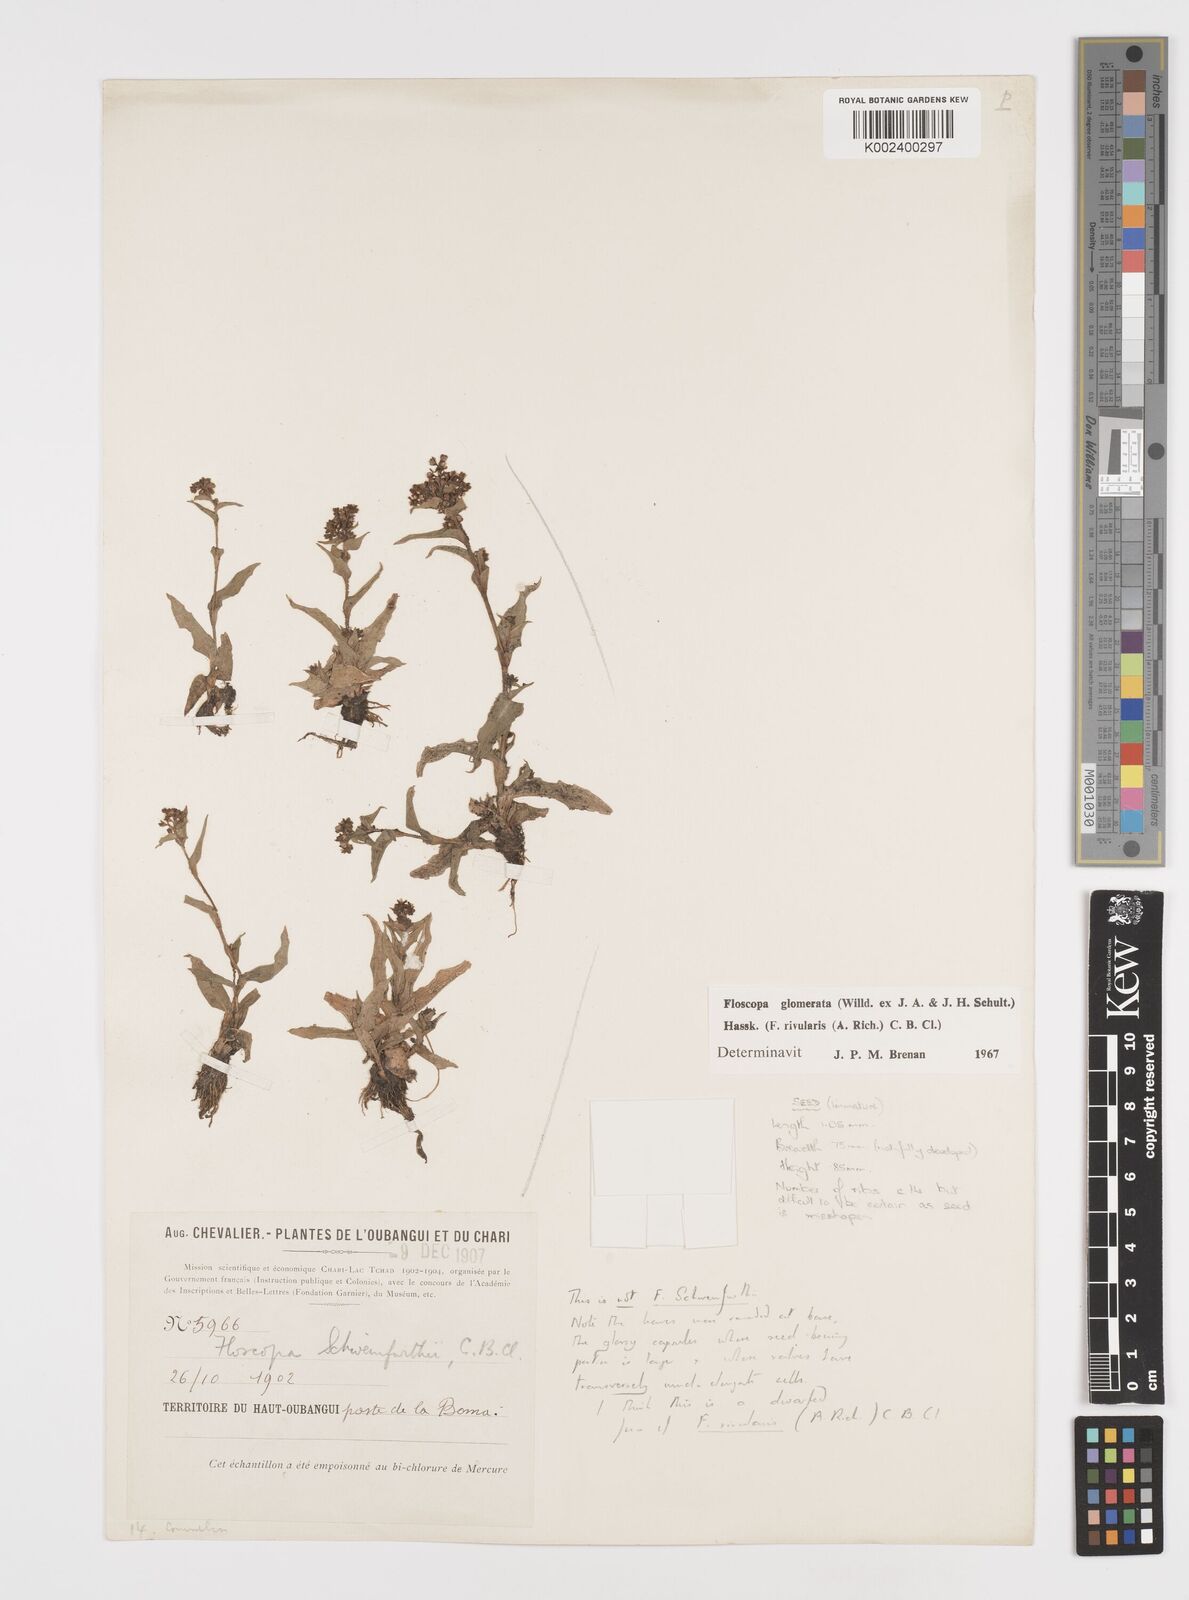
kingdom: Plantae
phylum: Tracheophyta
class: Liliopsida
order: Commelinales
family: Commelinaceae
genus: Floscopa
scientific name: Floscopa glomerata
